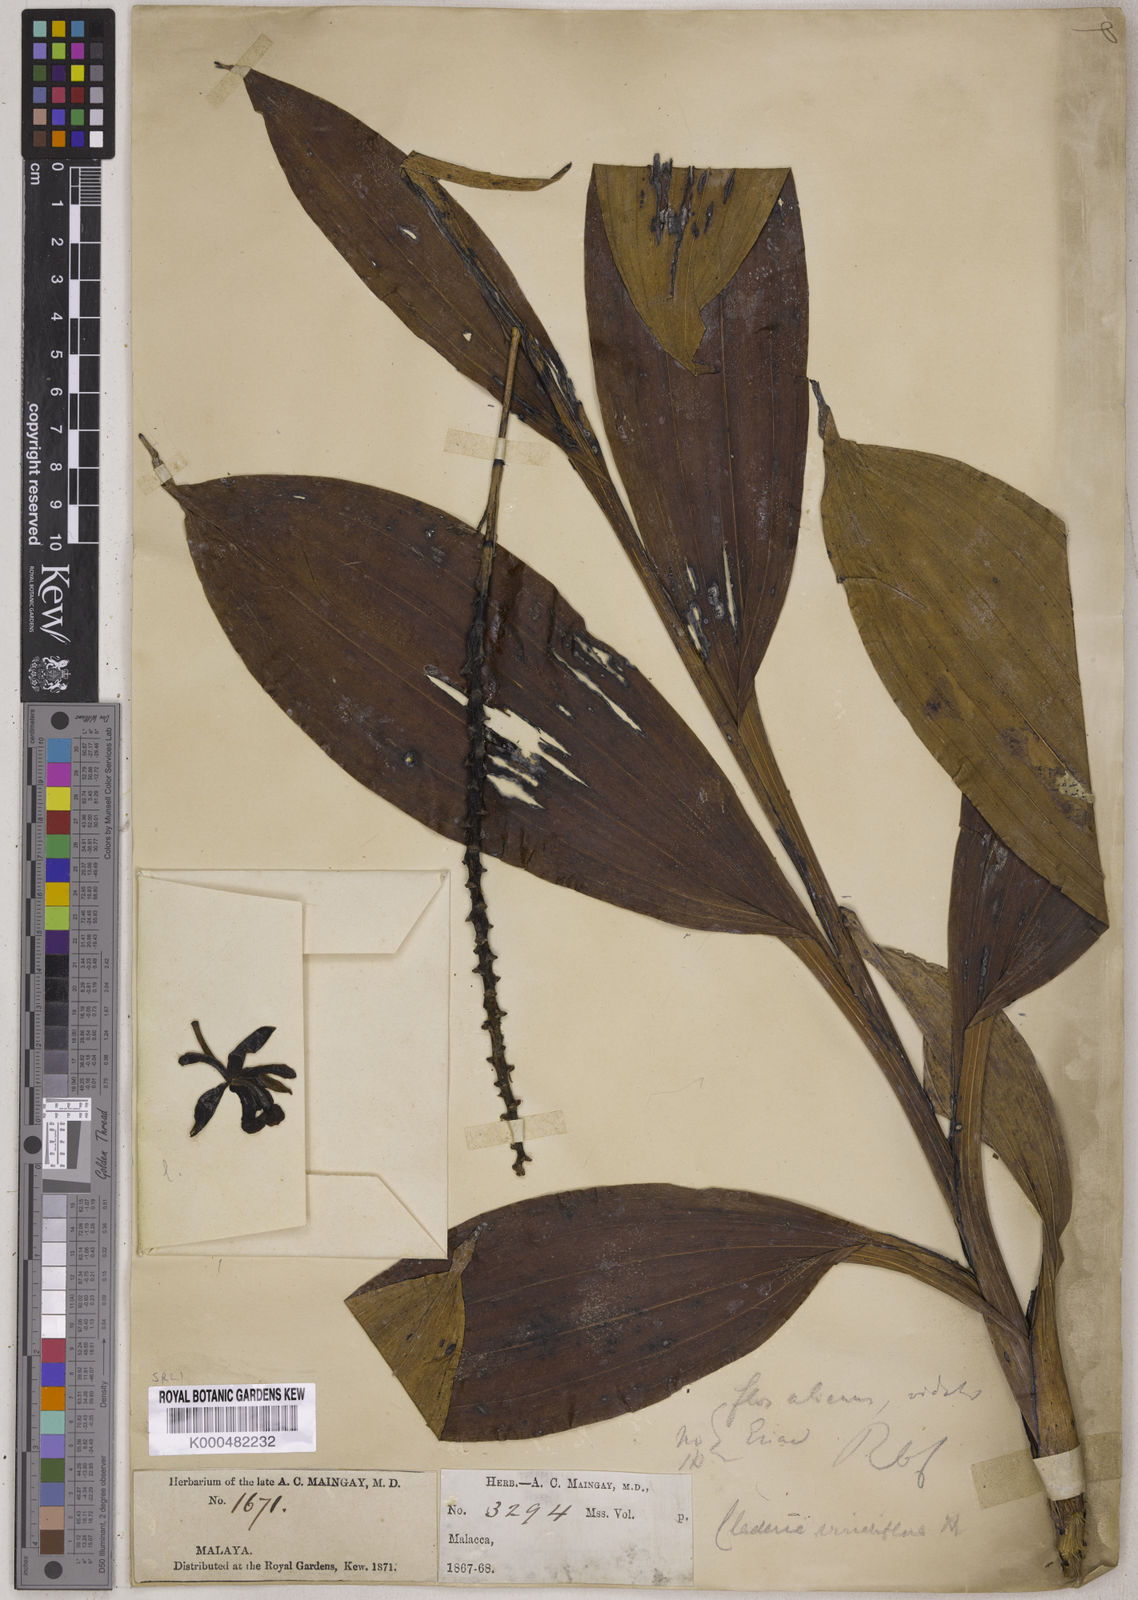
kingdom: Plantae
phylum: Tracheophyta
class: Liliopsida
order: Asparagales
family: Orchidaceae
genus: Claderia
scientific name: Claderia
